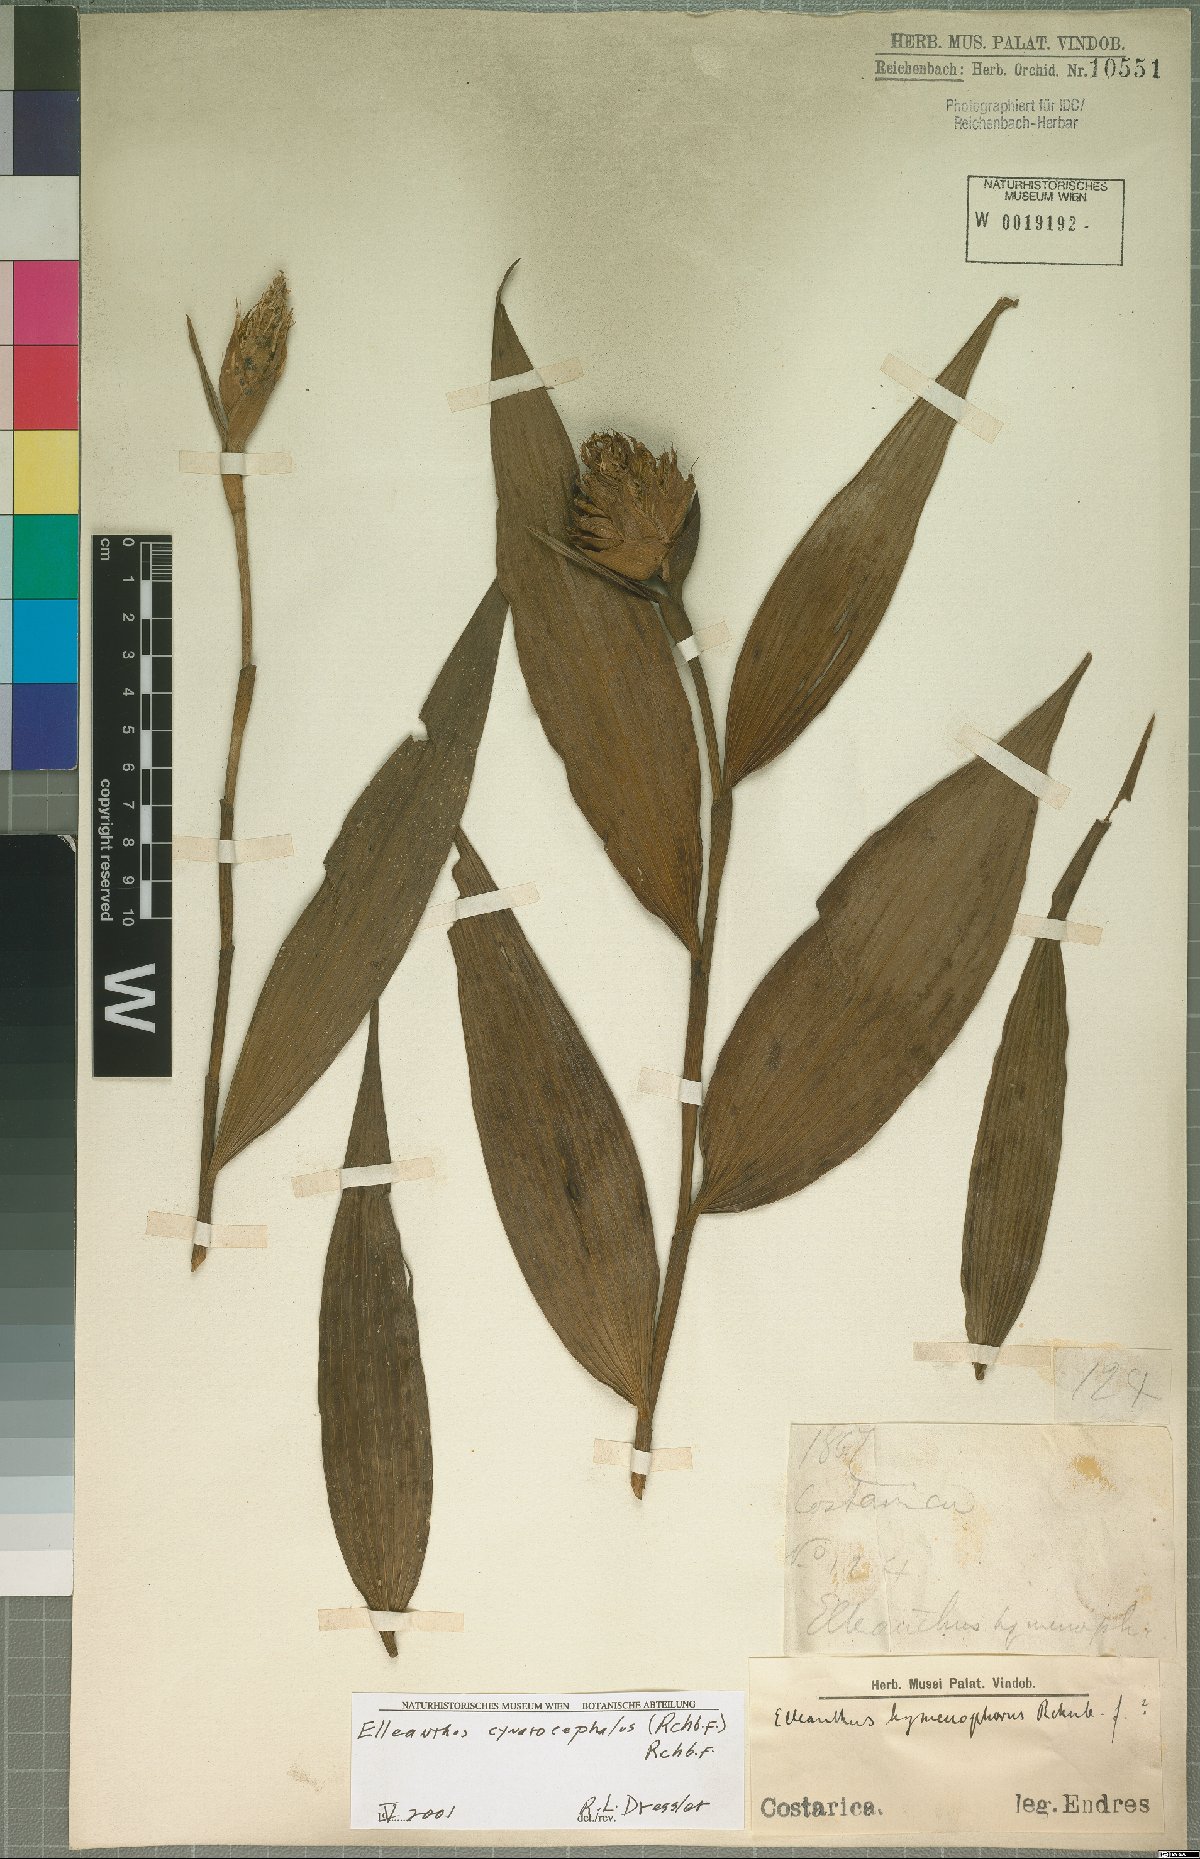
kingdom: Plantae
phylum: Tracheophyta
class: Liliopsida
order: Asparagales
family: Orchidaceae
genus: Elleanthus
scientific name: Elleanthus capitatus
